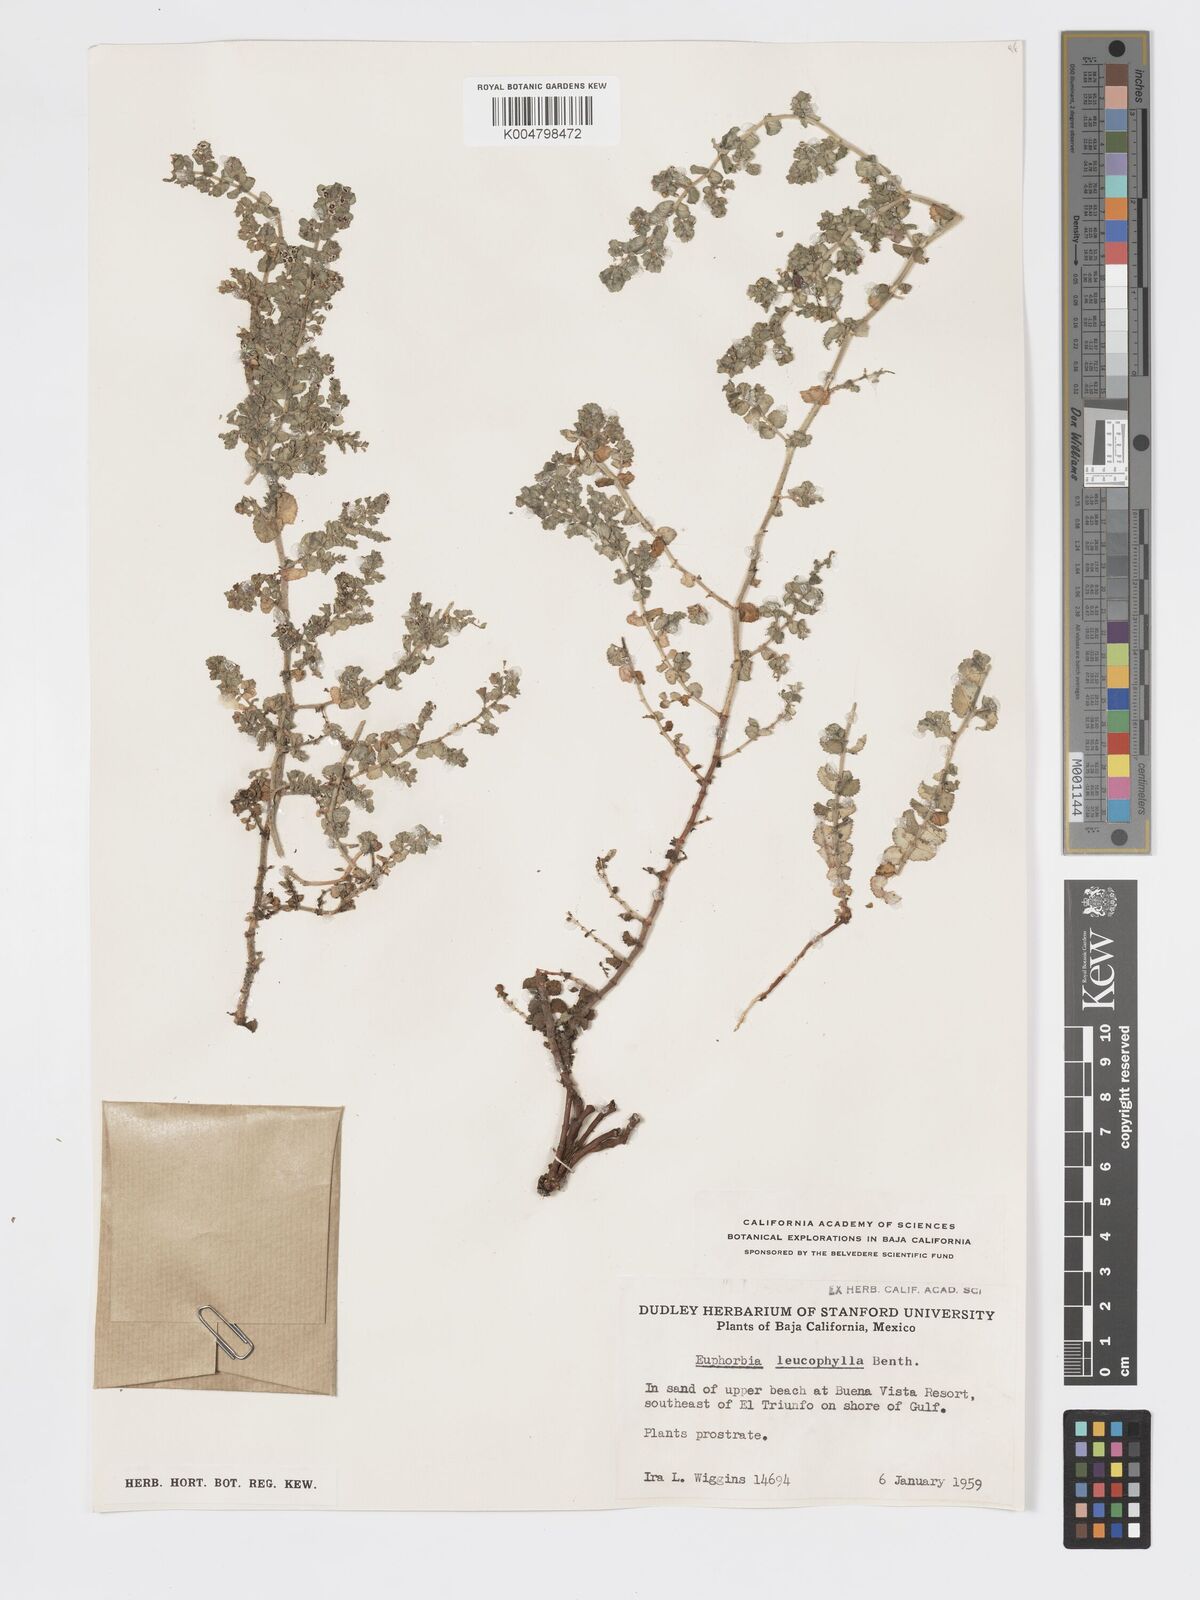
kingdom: Plantae
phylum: Tracheophyta
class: Magnoliopsida
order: Malpighiales
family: Euphorbiaceae
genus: Euphorbia
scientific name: Euphorbia leucophylla
